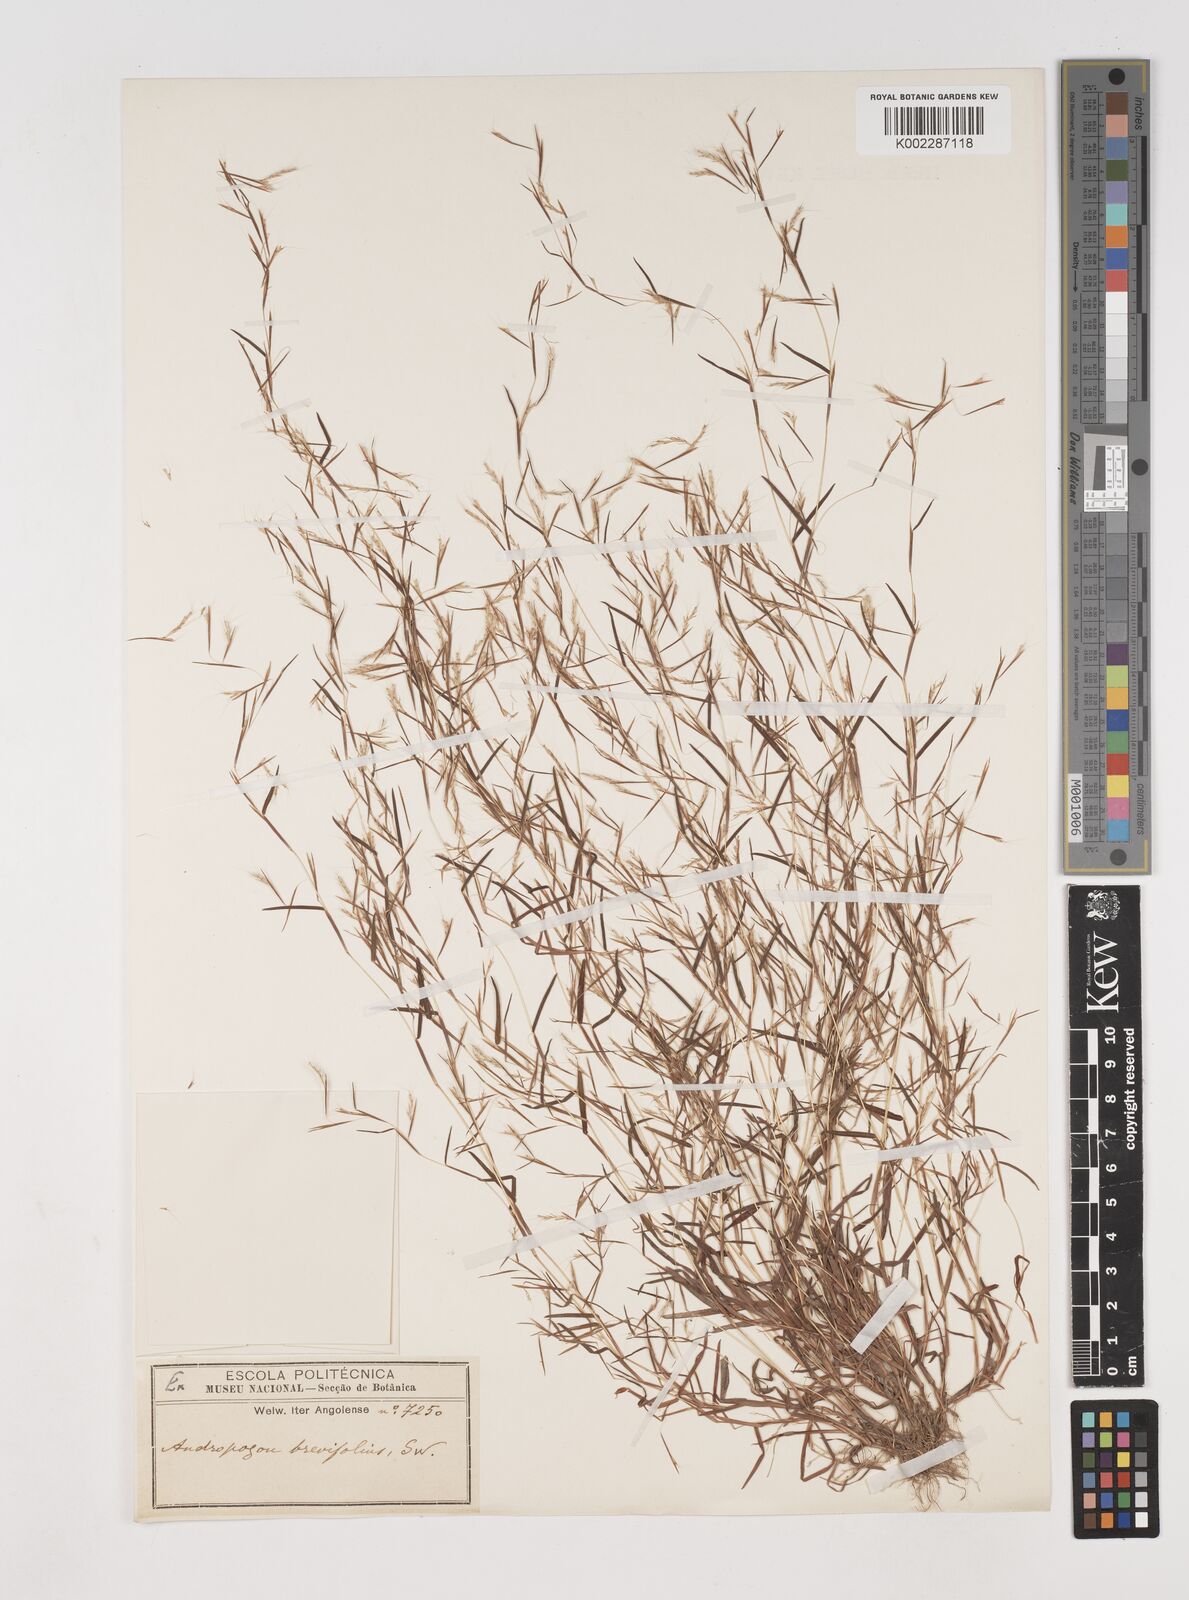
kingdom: Plantae
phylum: Tracheophyta
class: Liliopsida
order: Poales
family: Poaceae
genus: Schizachyrium
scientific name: Schizachyrium brevifolium
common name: Serillo dulce
